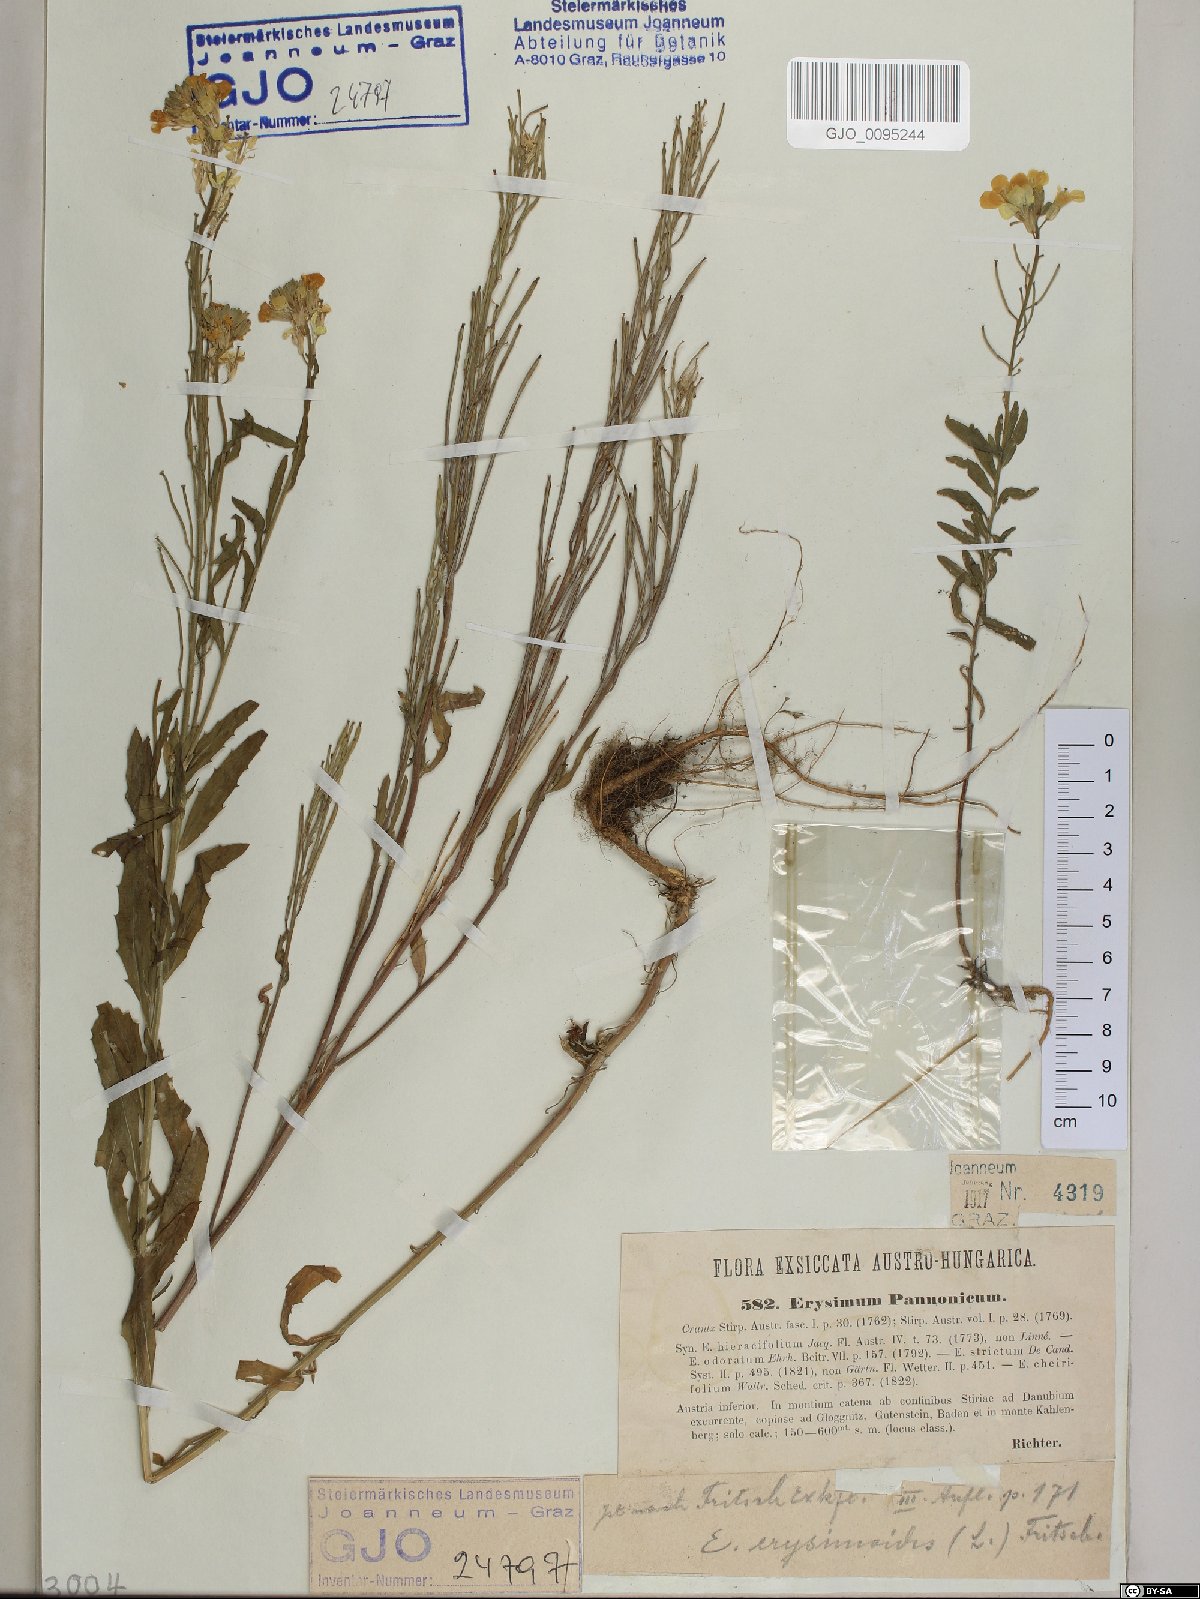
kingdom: Plantae
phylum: Tracheophyta
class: Magnoliopsida
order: Brassicales
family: Brassicaceae
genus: Erysimum
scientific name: Erysimum odoratum
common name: Smelly wallflower
